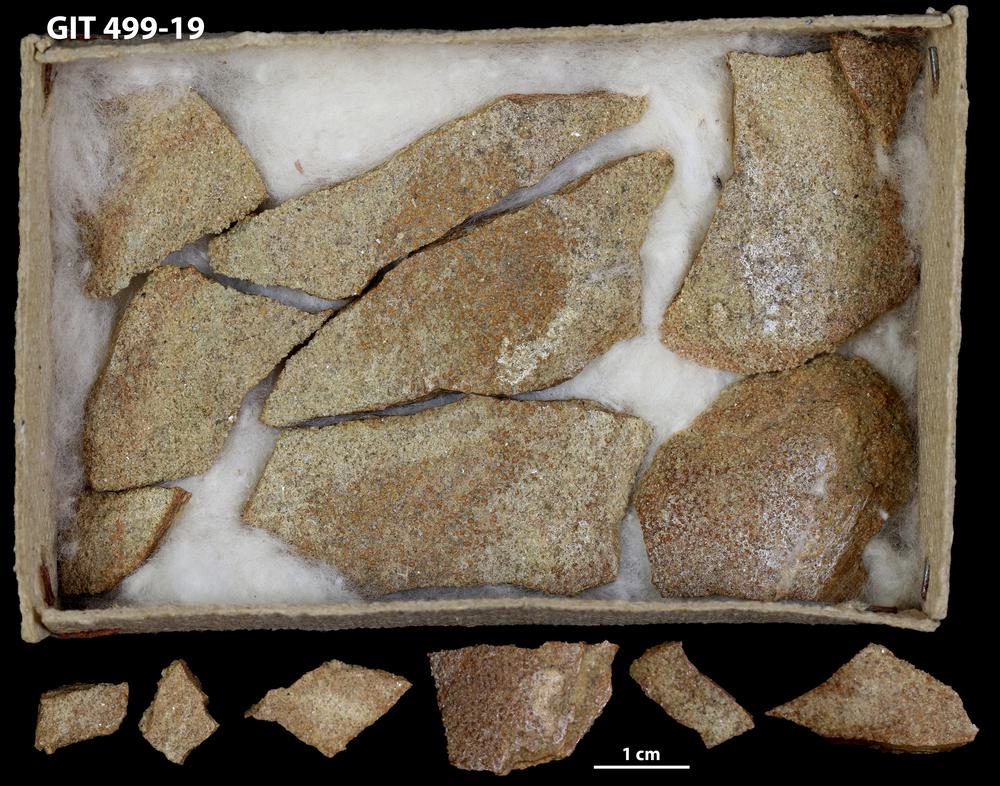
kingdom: Animalia
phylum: Chordata
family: Holoptychiidae
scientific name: Holoptychiidae
